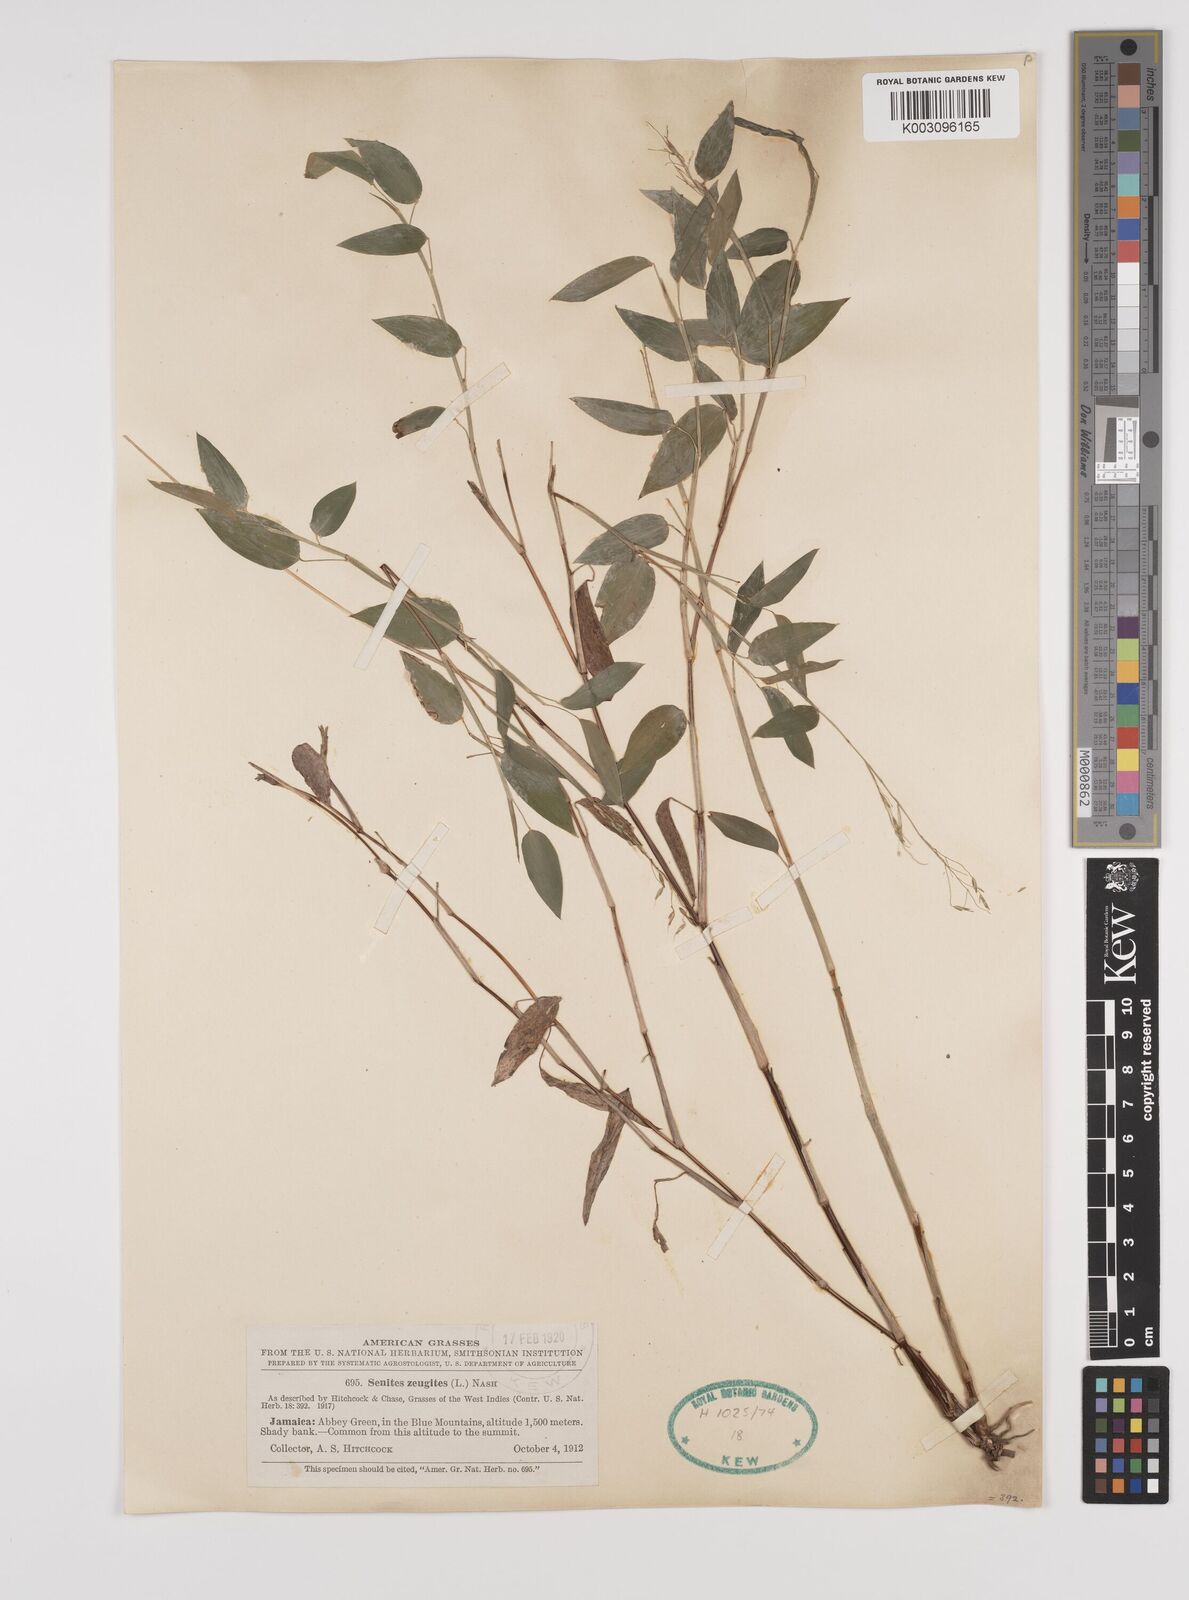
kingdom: Plantae
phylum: Tracheophyta
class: Liliopsida
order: Poales
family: Poaceae
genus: Zeugites
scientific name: Zeugites americanus
